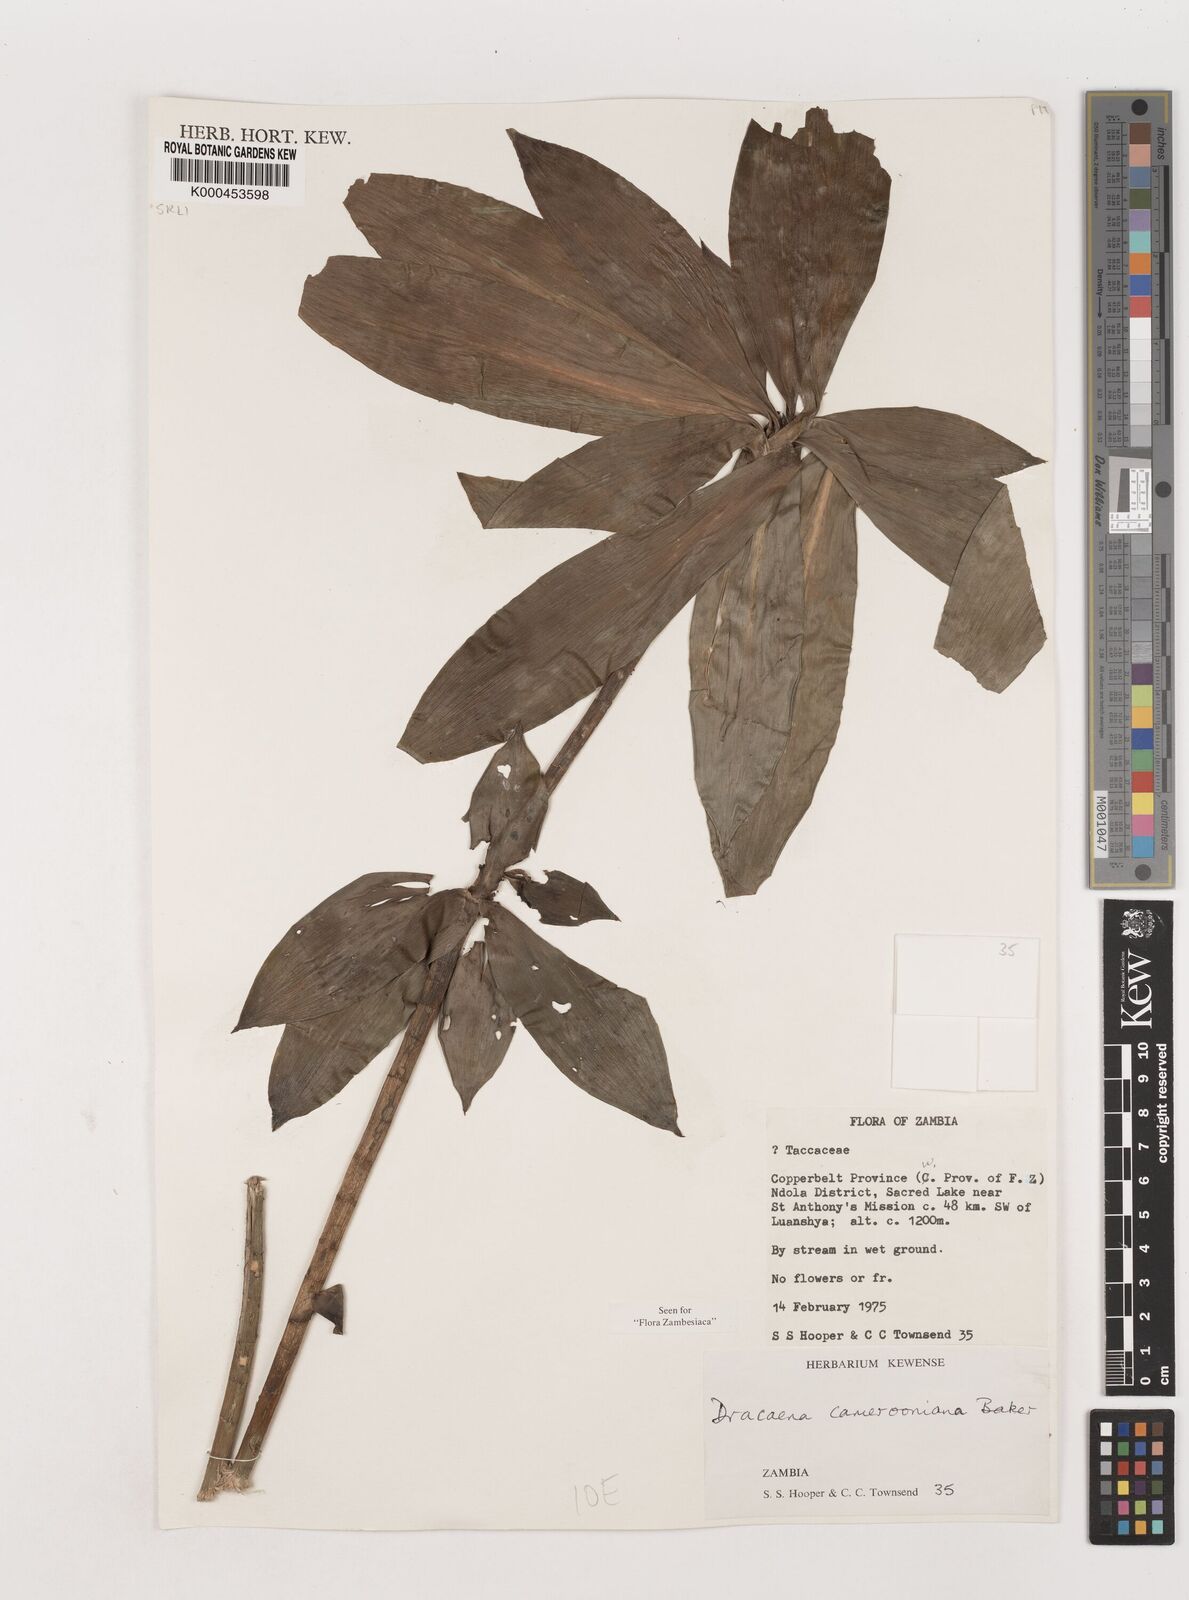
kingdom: Plantae
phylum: Tracheophyta
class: Liliopsida
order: Asparagales
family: Asparagaceae
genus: Dracaena
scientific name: Dracaena camerooniana
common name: Dragon tree
